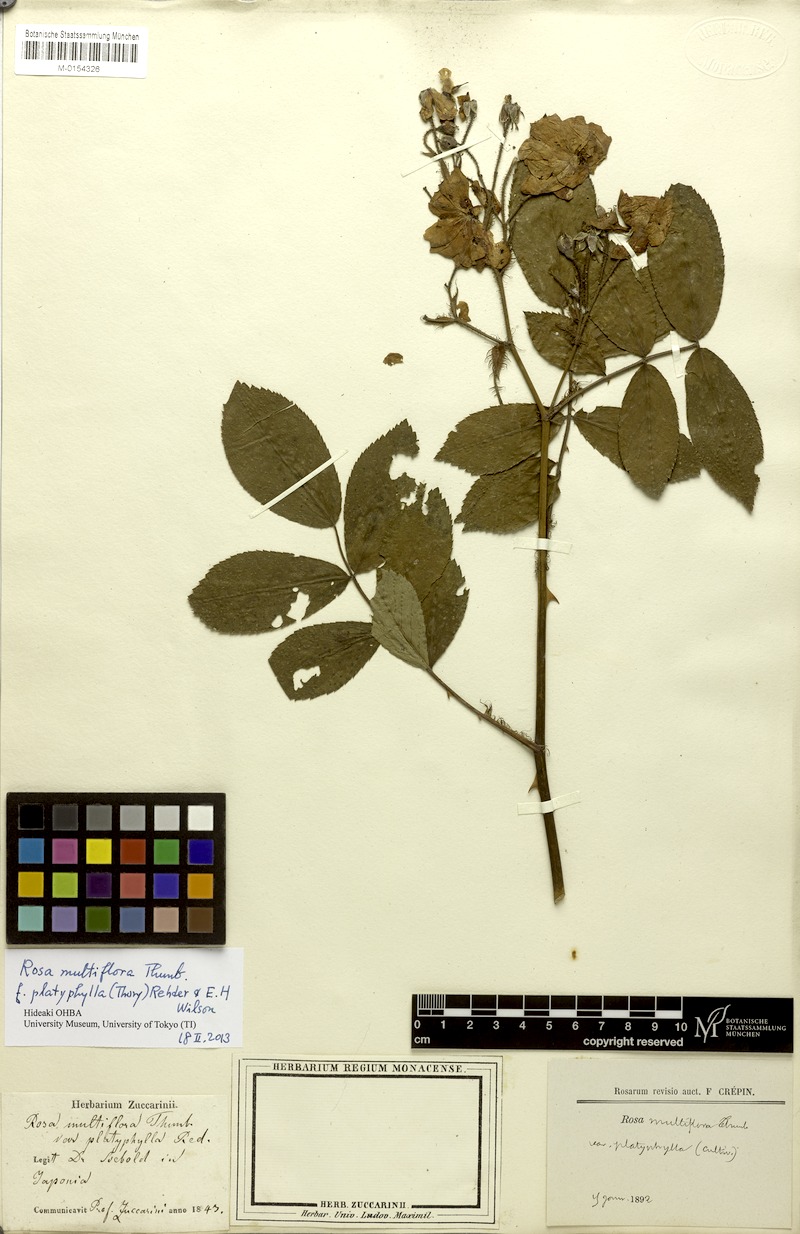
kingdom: Plantae
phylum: Tracheophyta
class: Magnoliopsida
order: Rosales
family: Rosaceae
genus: Rosa
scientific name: Rosa multiflora
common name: Multiflora rose
